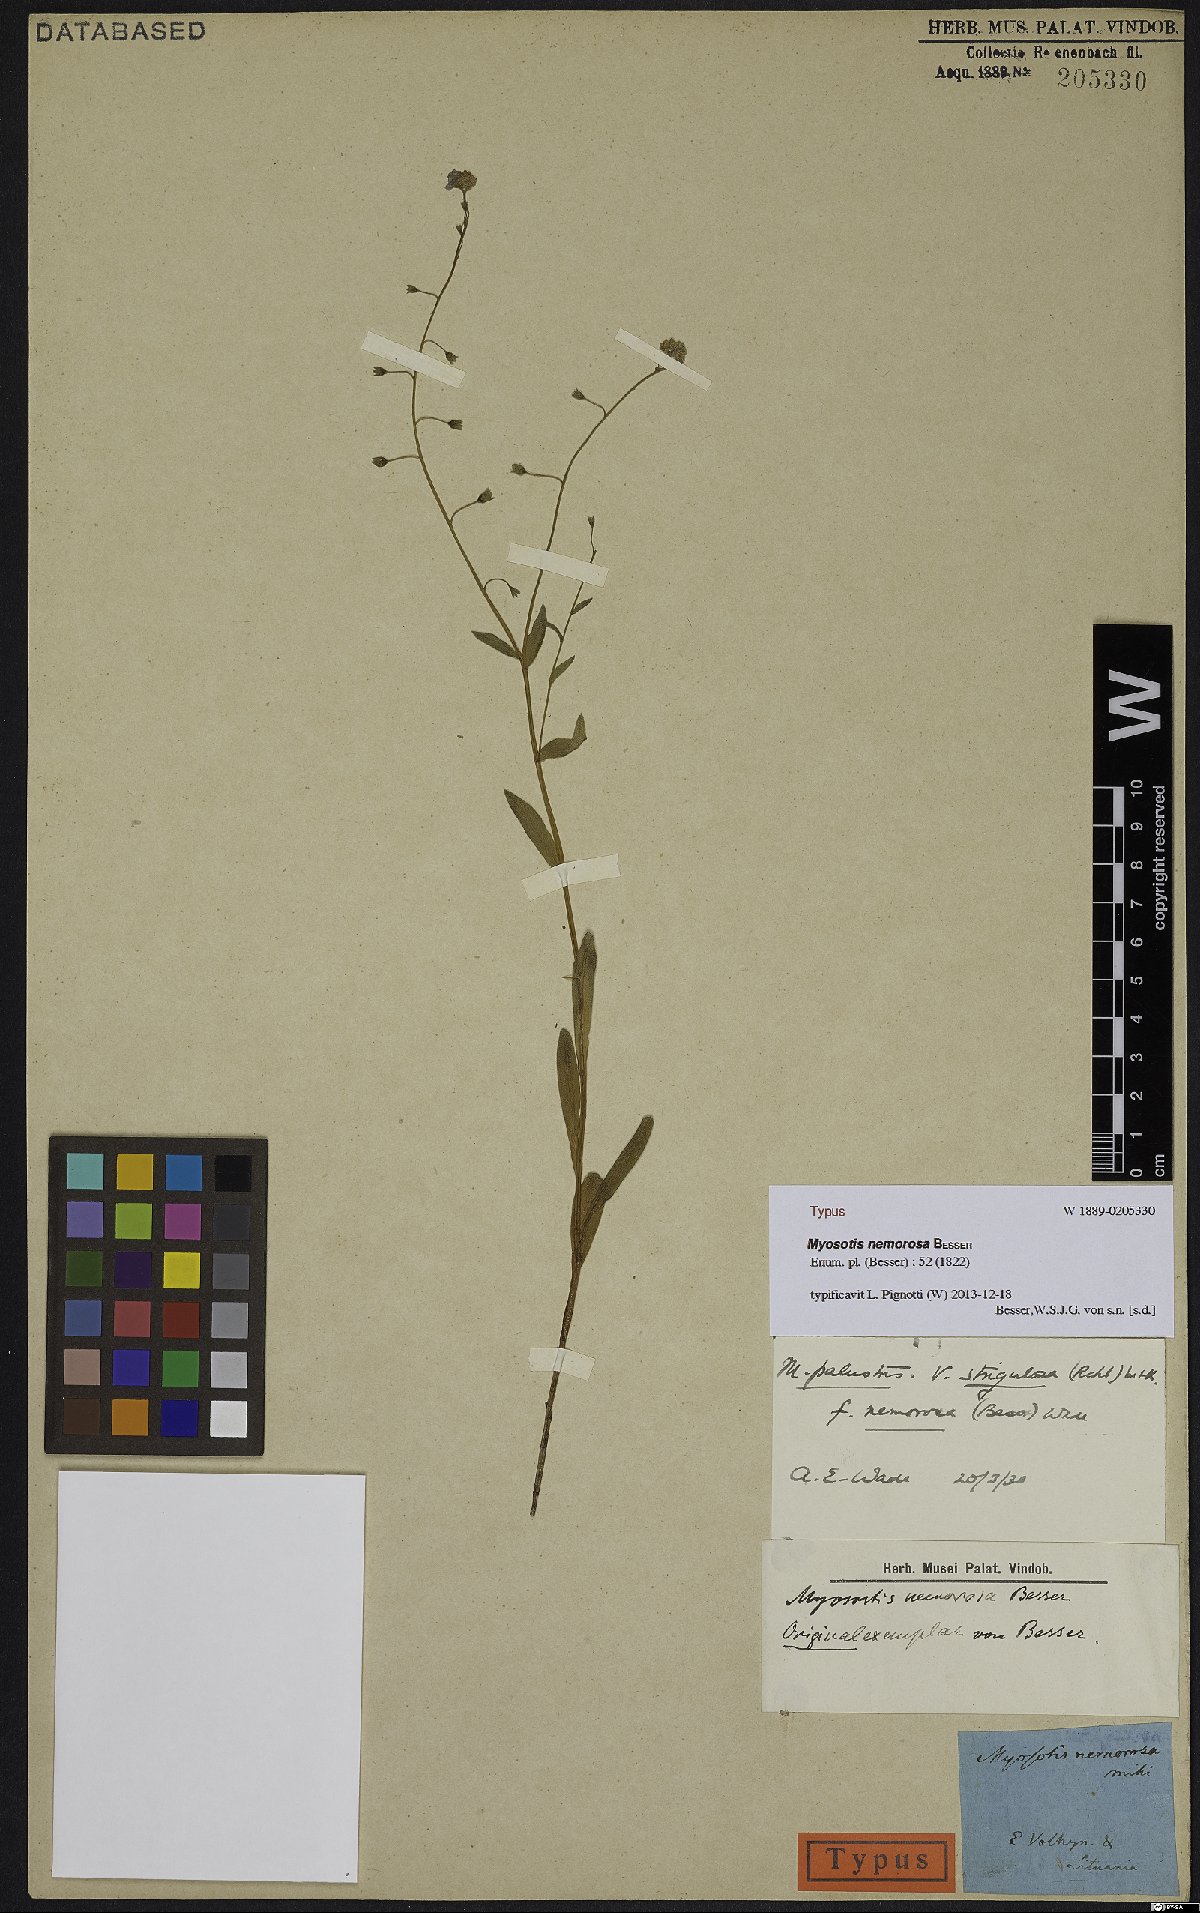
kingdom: Plantae
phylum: Tracheophyta
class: Magnoliopsida
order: Boraginales
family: Boraginaceae
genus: Myosotis
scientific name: Myosotis nemorosa
